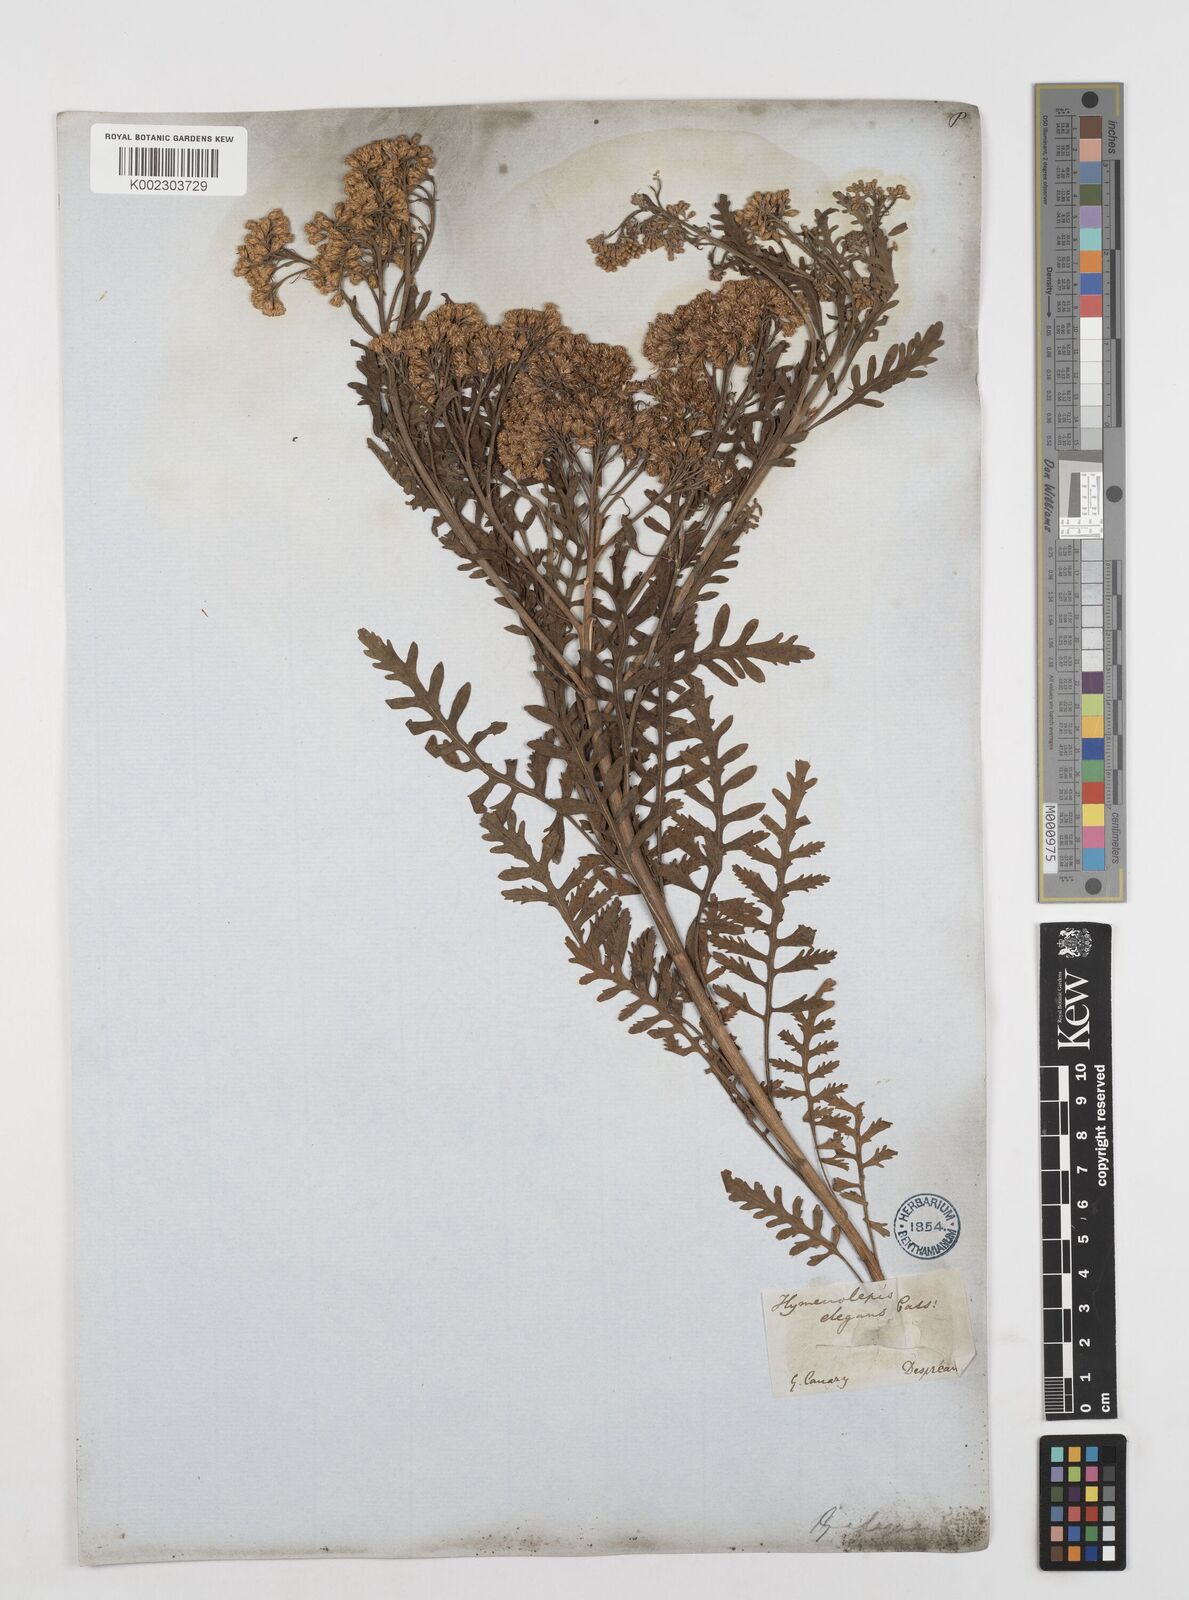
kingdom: Plantae
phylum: Tracheophyta
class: Magnoliopsida
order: Asterales
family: Asteraceae
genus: Gonospermum
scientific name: Gonospermum
